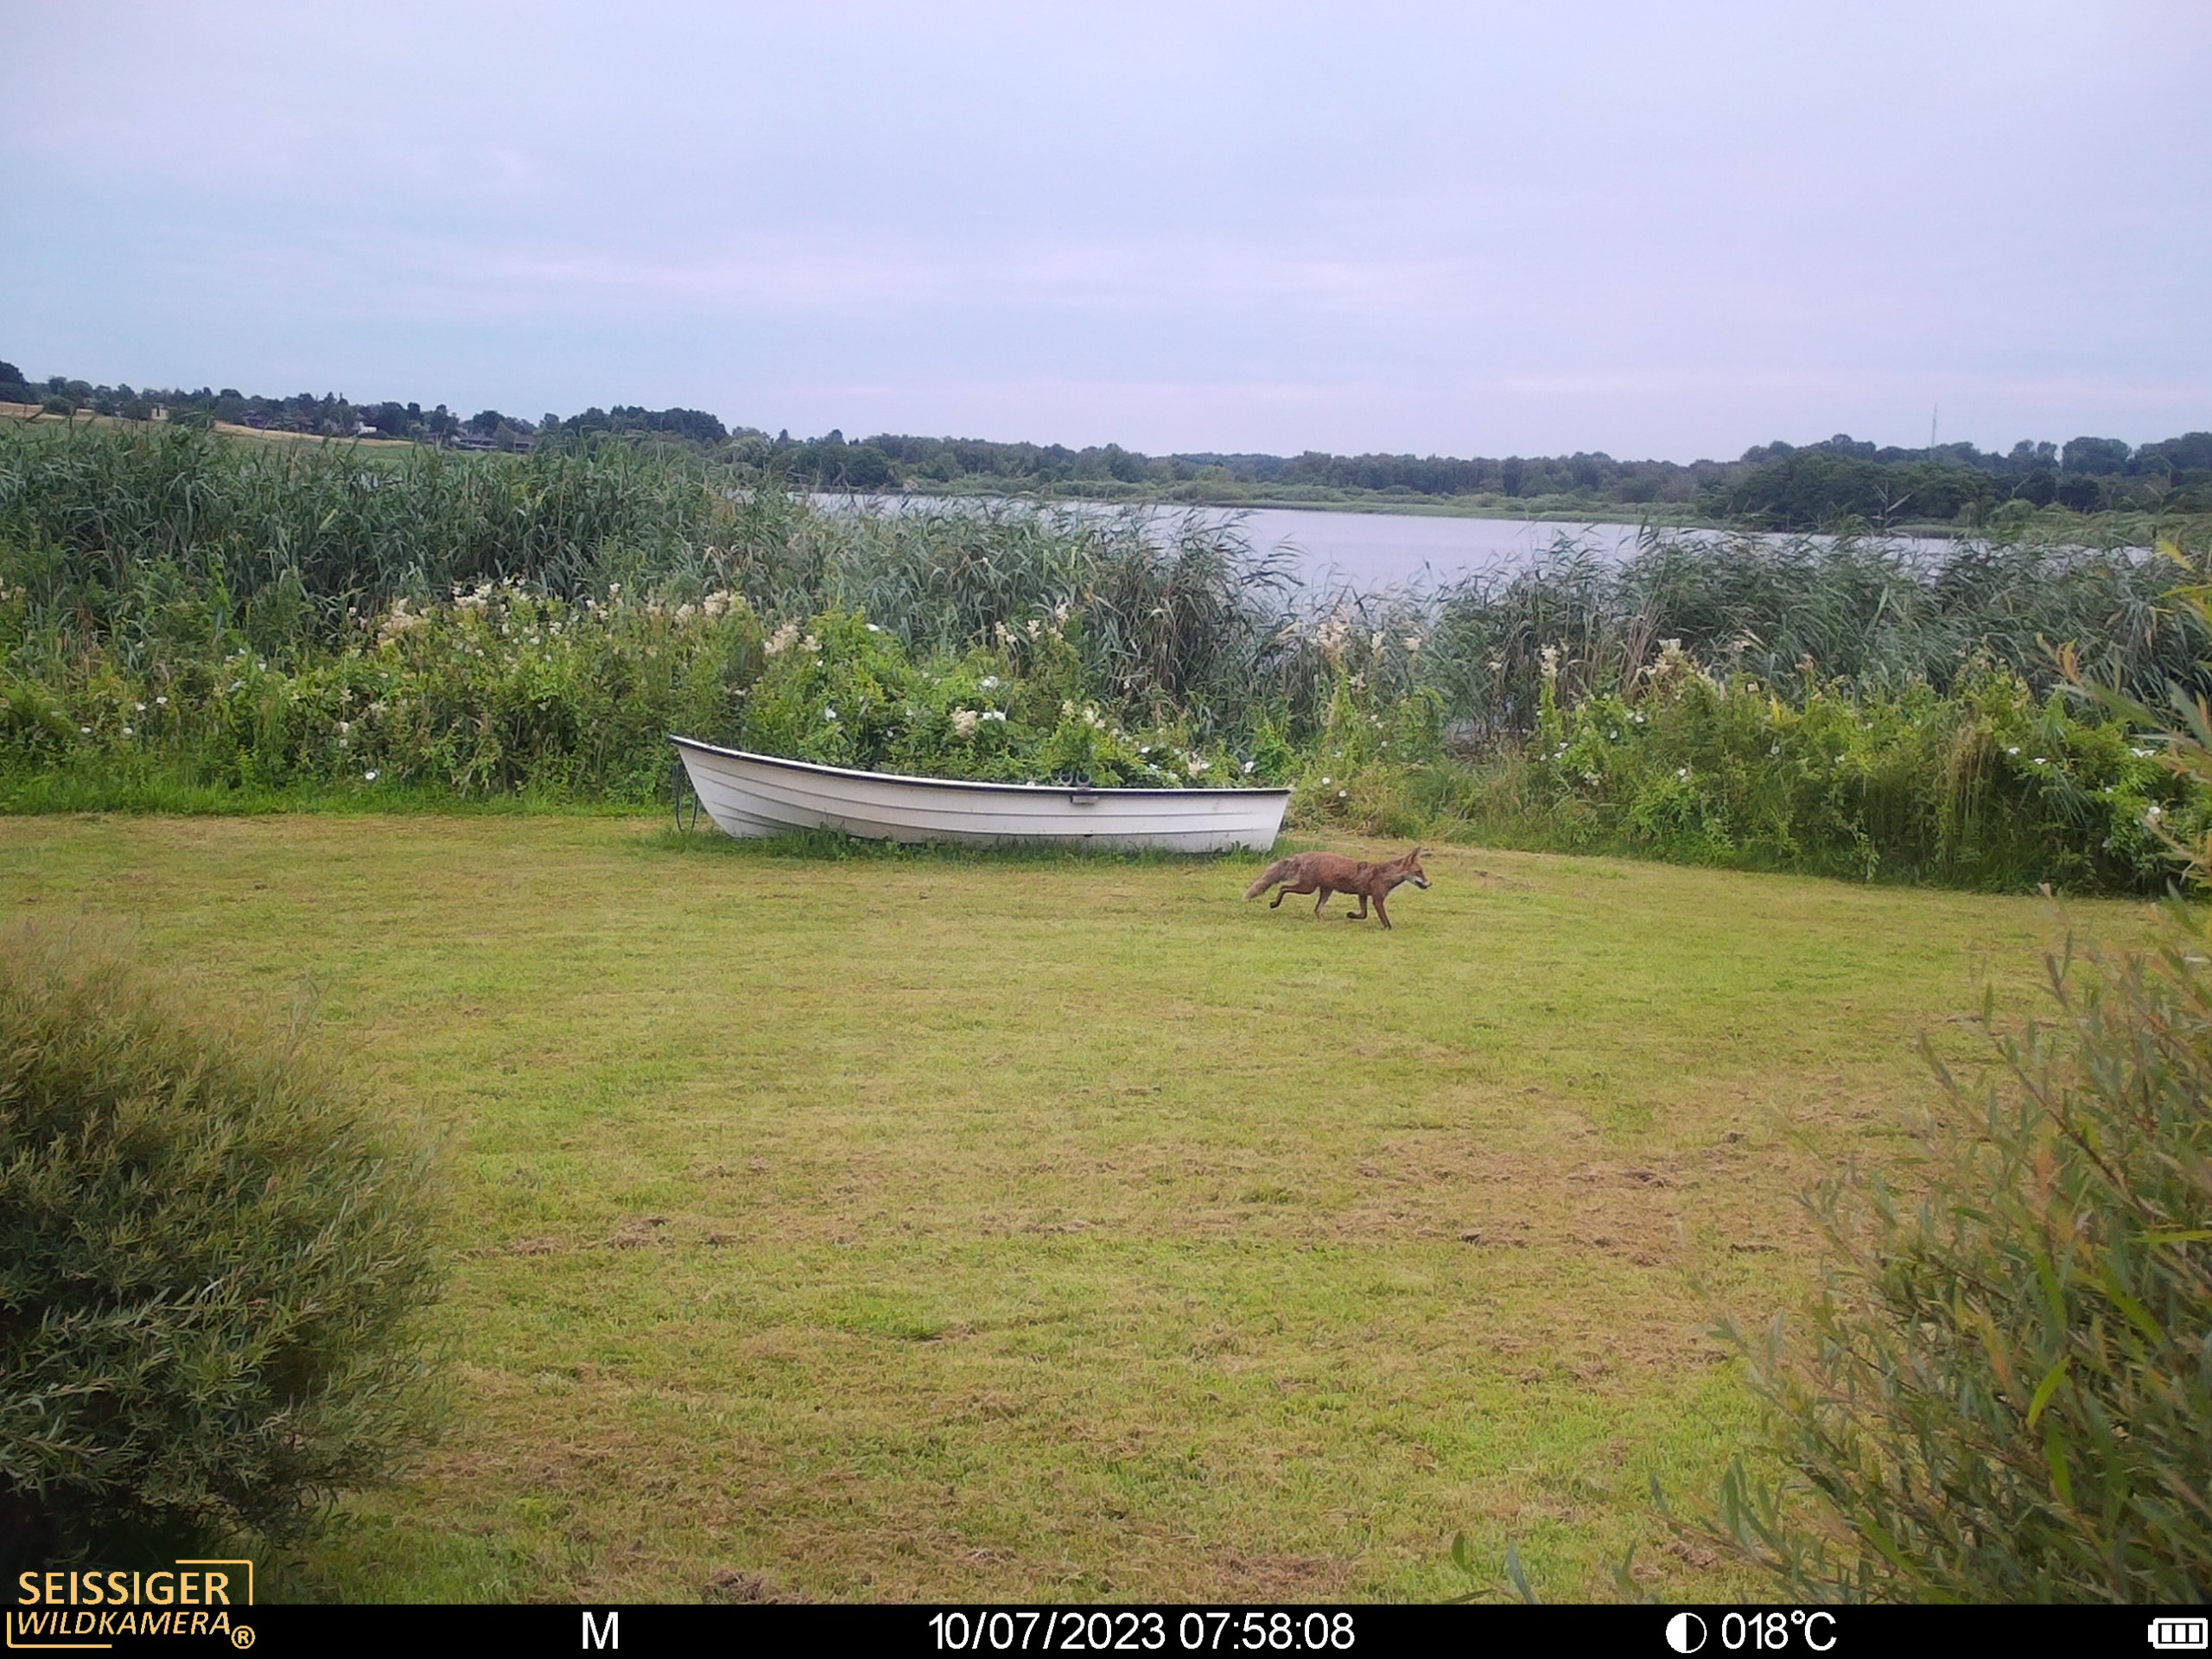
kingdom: Animalia
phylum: Chordata
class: Mammalia
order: Carnivora
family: Canidae
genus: Vulpes
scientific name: Vulpes vulpes
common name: Ræv
